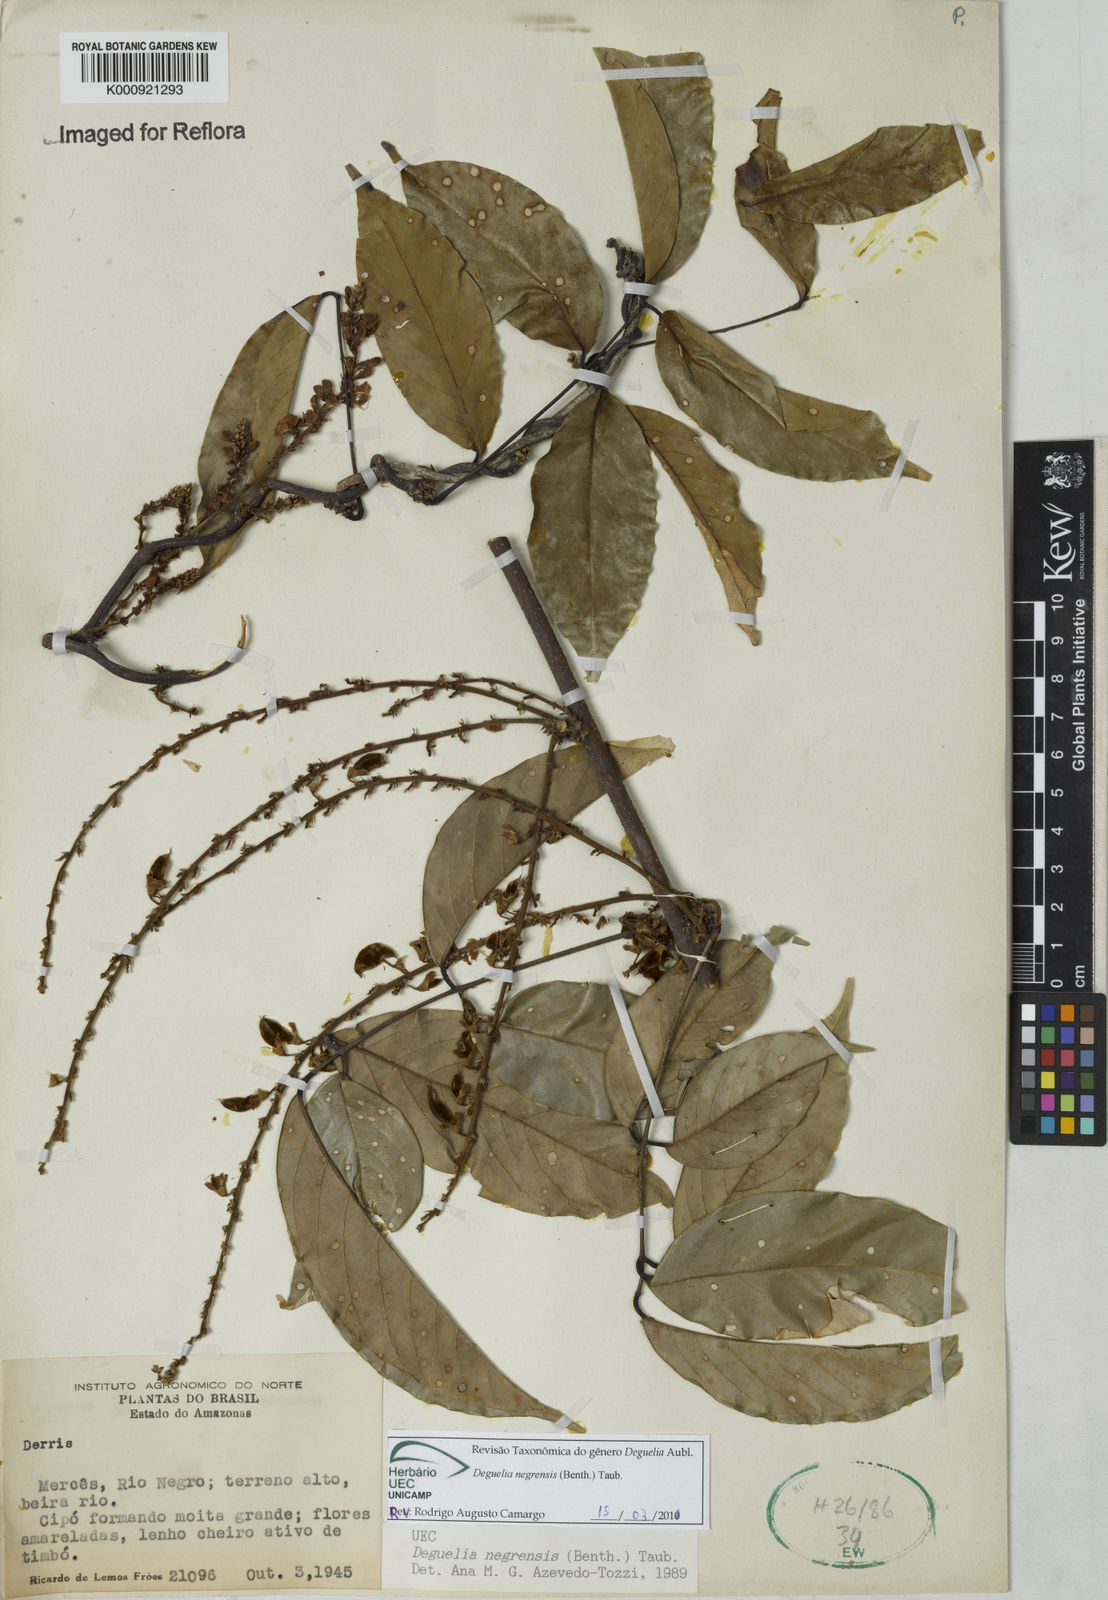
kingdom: Plantae
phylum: Tracheophyta
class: Magnoliopsida
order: Fabales
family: Fabaceae
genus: Deguelia
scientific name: Deguelia negrensis
